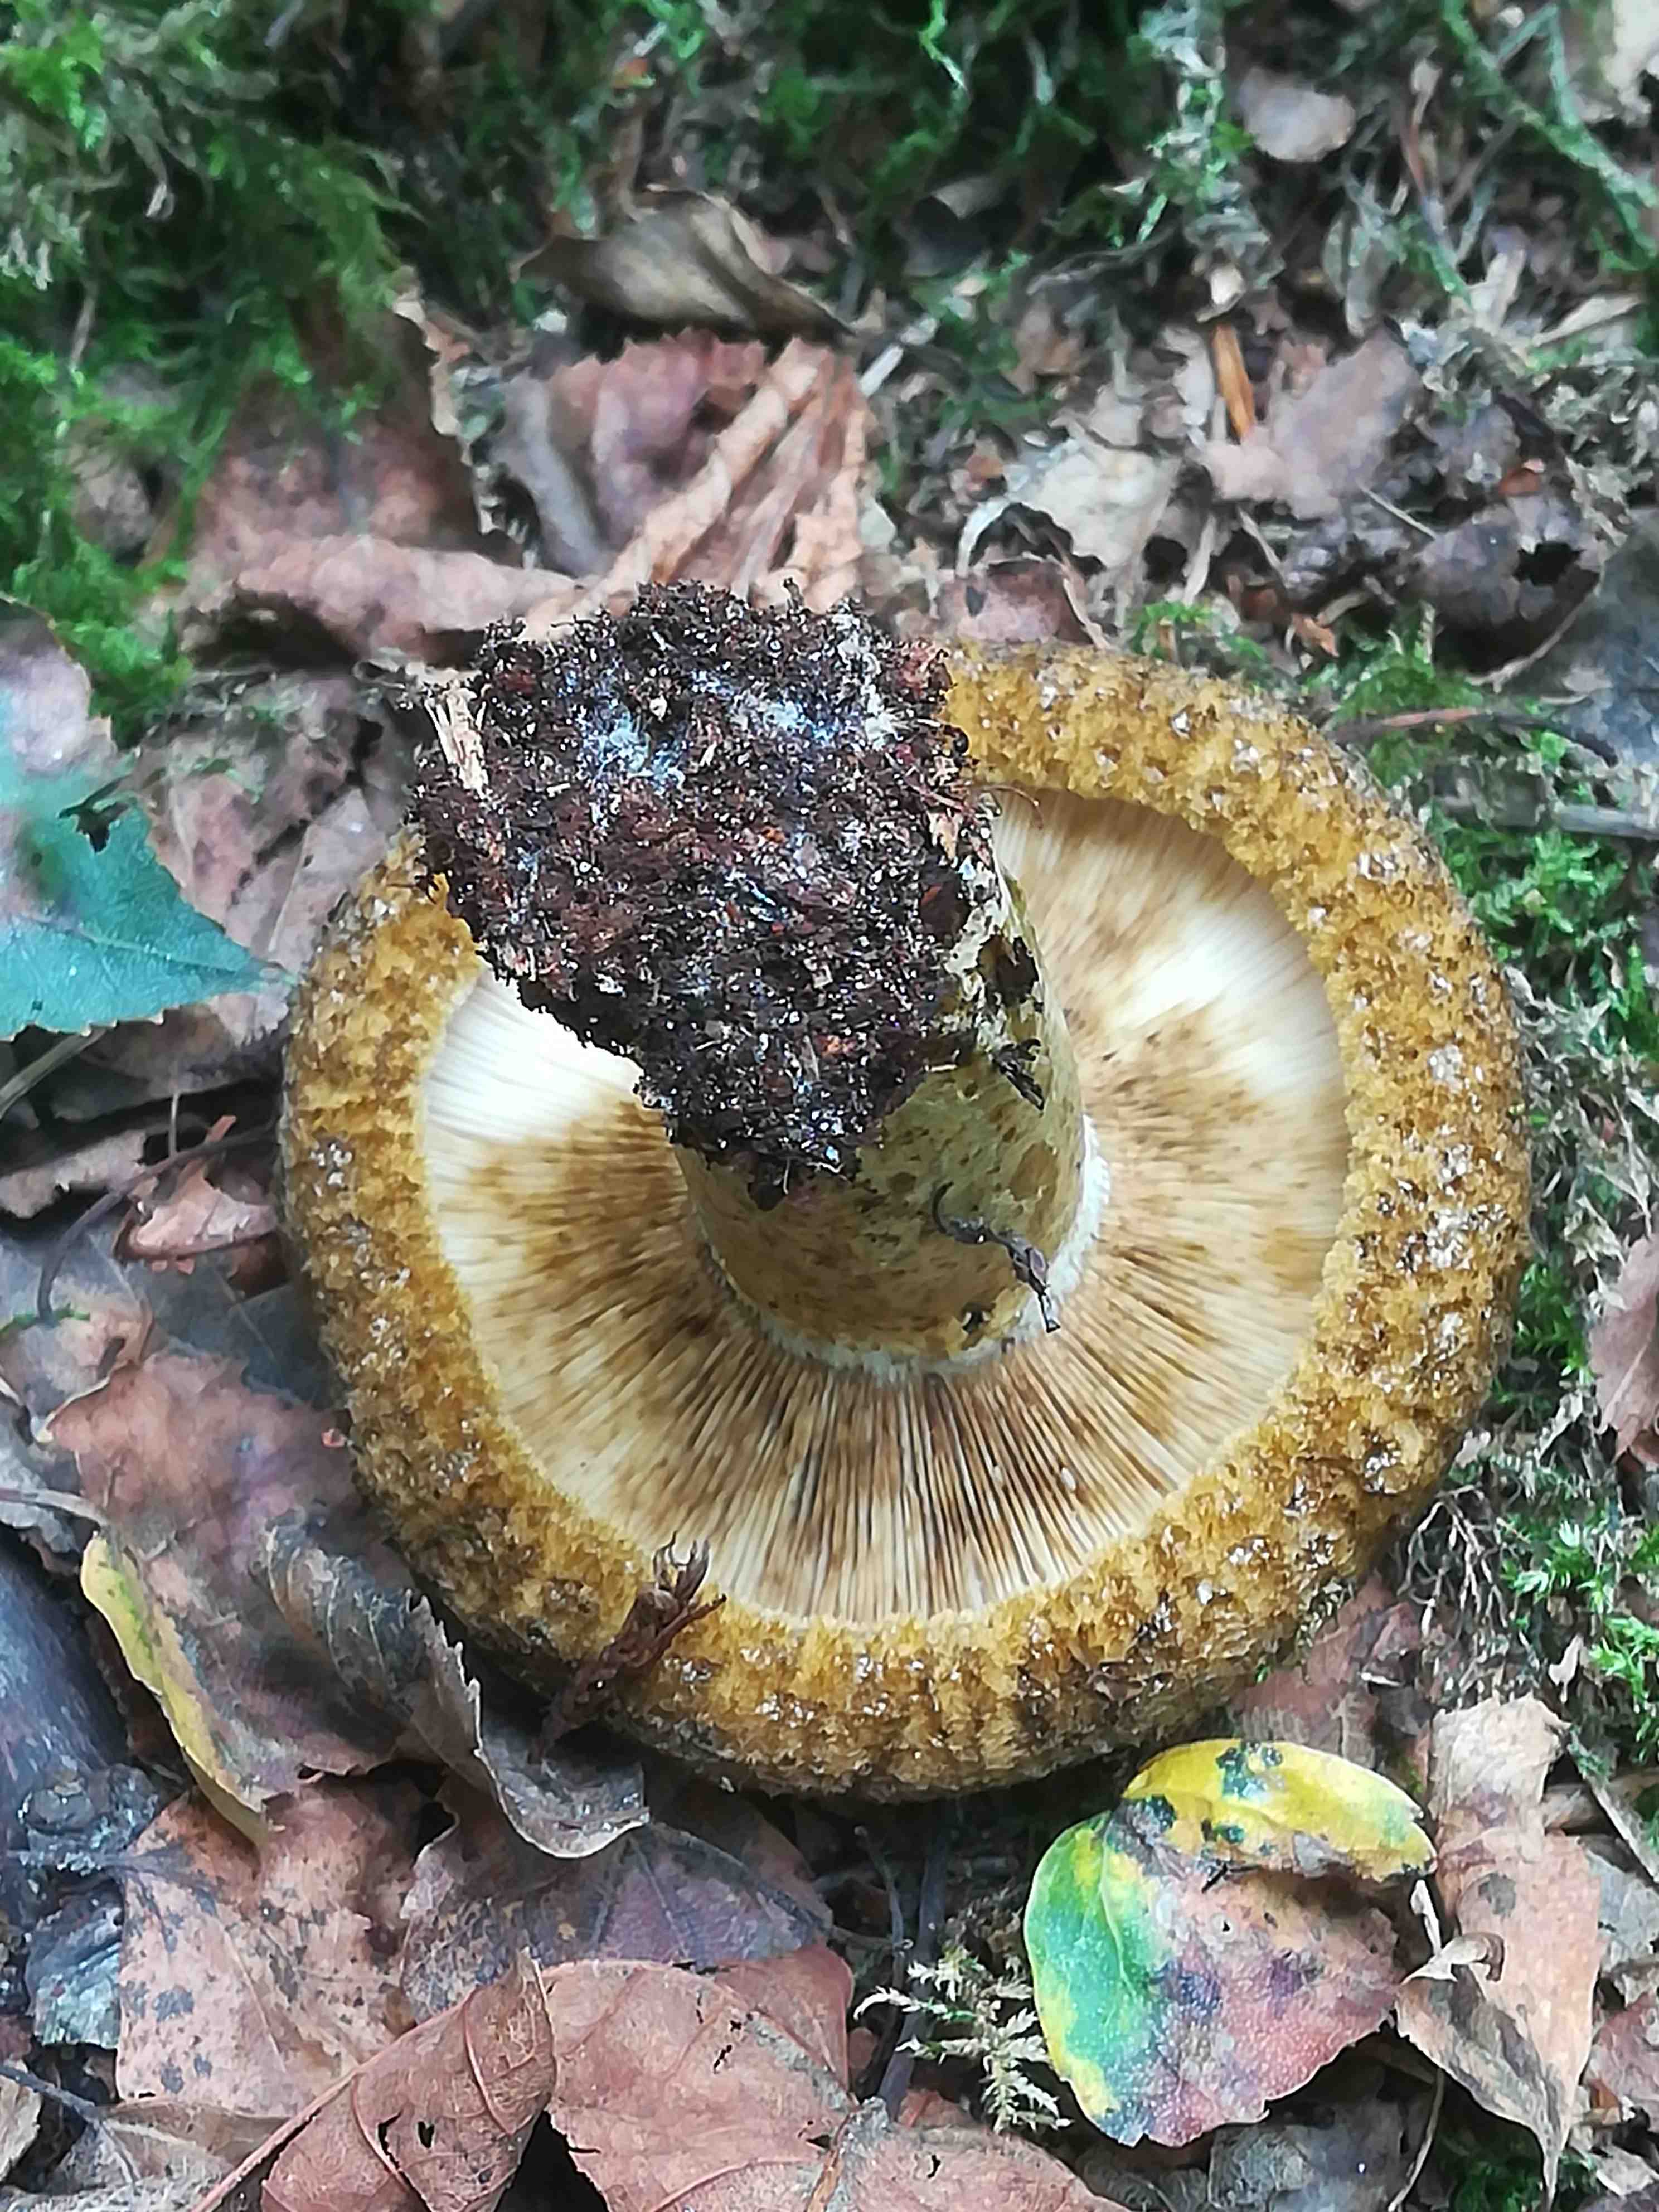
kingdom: Fungi
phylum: Basidiomycota
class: Agaricomycetes
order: Russulales
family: Russulaceae
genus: Lactarius
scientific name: Lactarius necator
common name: manddraber-mælkehat
